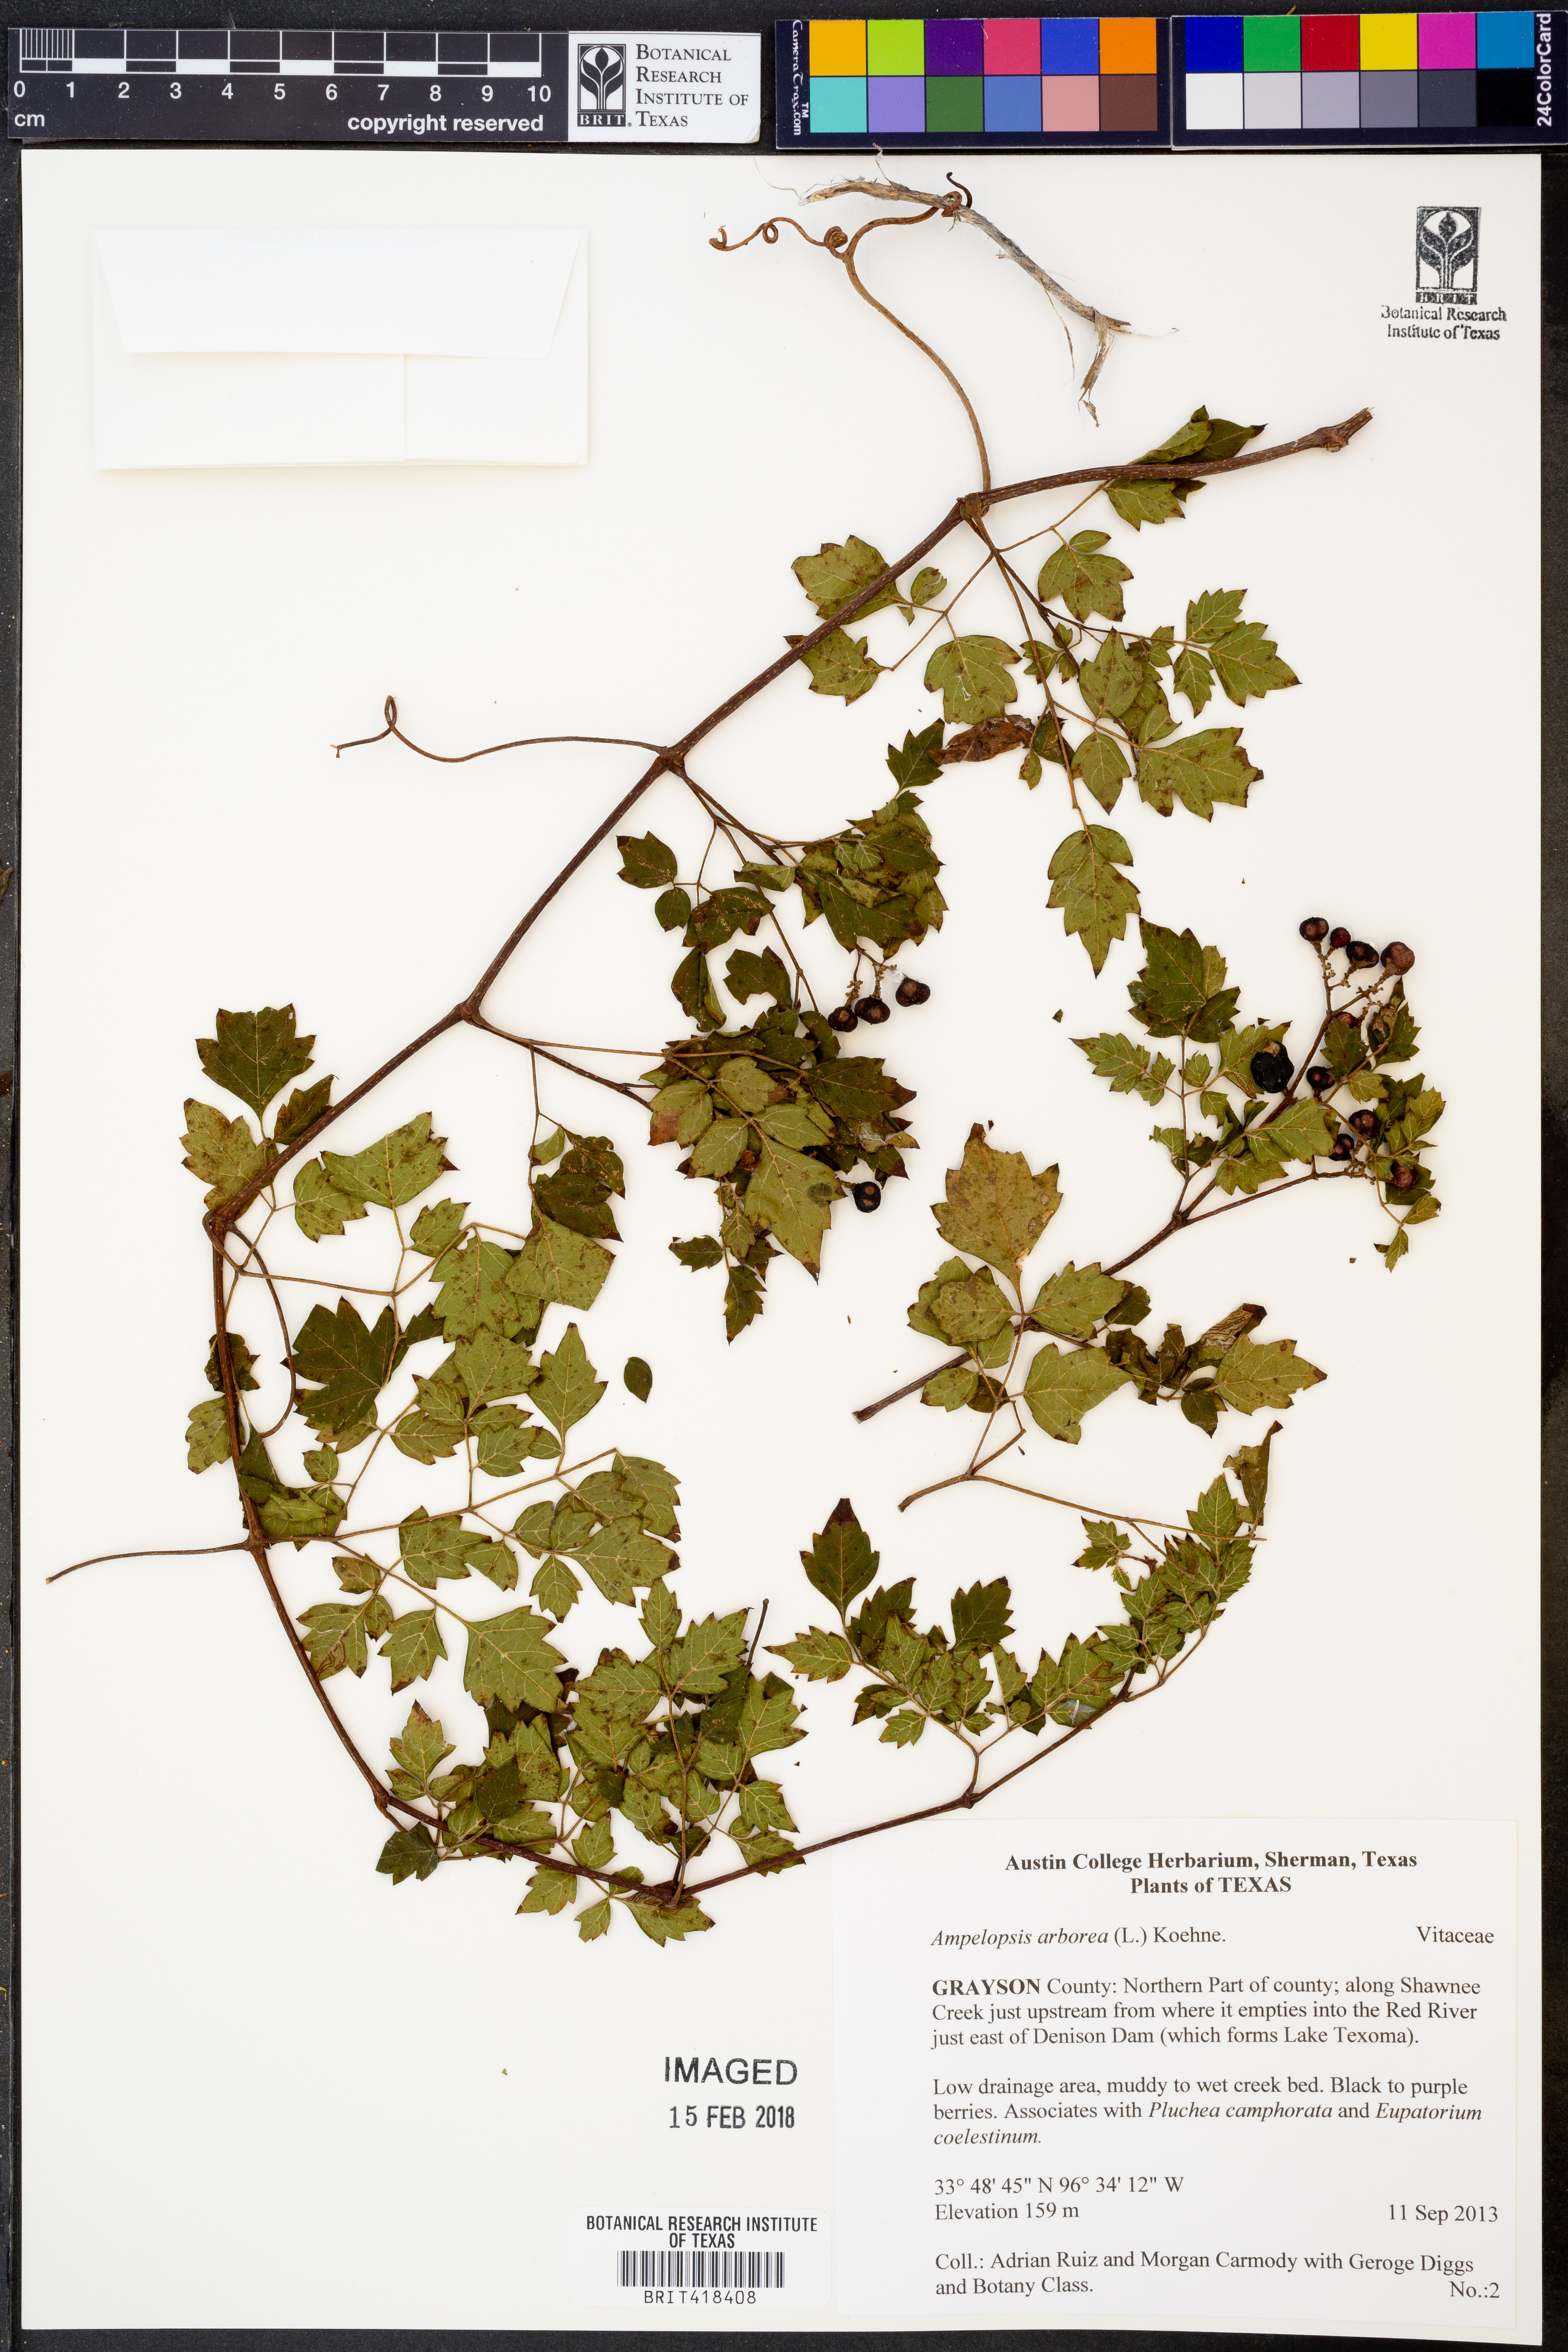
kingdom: Plantae
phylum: Tracheophyta
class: Magnoliopsida
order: Vitales
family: Vitaceae
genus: Nekemias
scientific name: Nekemias arborea
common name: Peppervine
